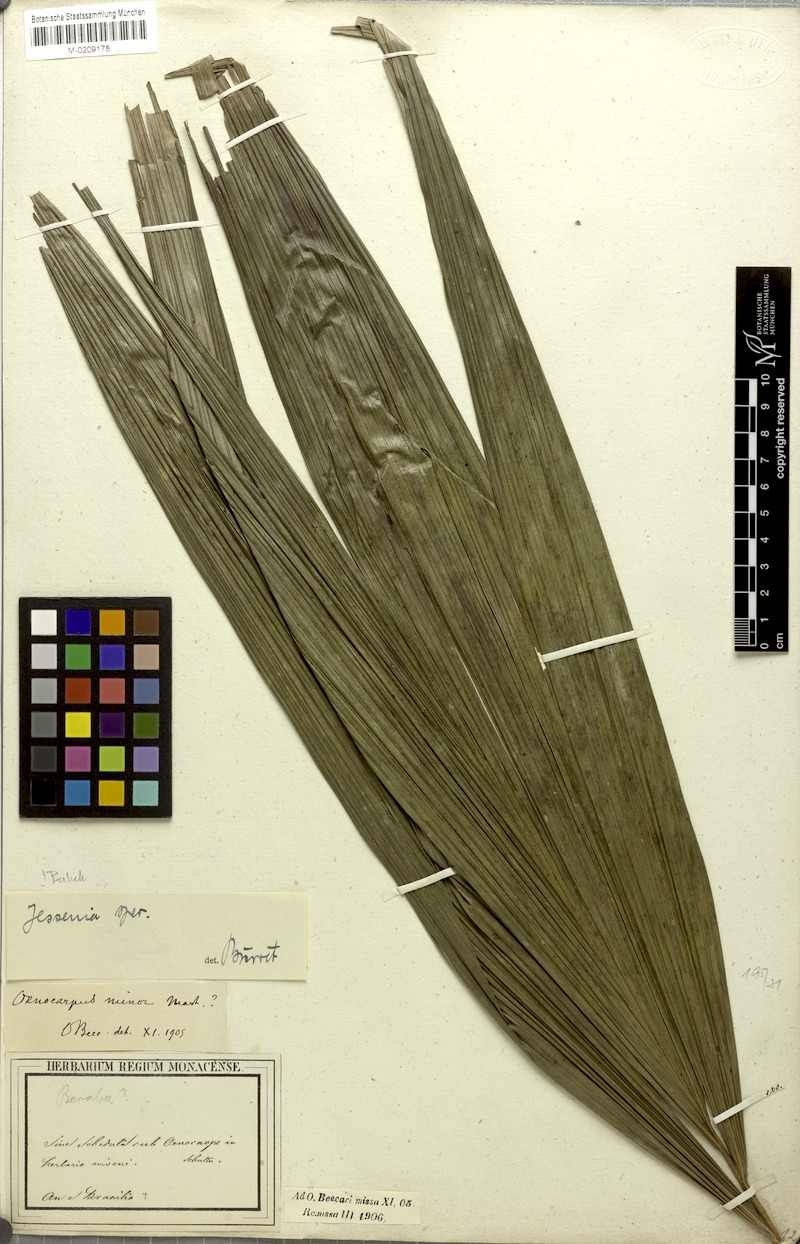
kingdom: Plantae
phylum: Tracheophyta
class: Liliopsida
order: Arecales
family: Arecaceae
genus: Oenocarpus
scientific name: Oenocarpus
